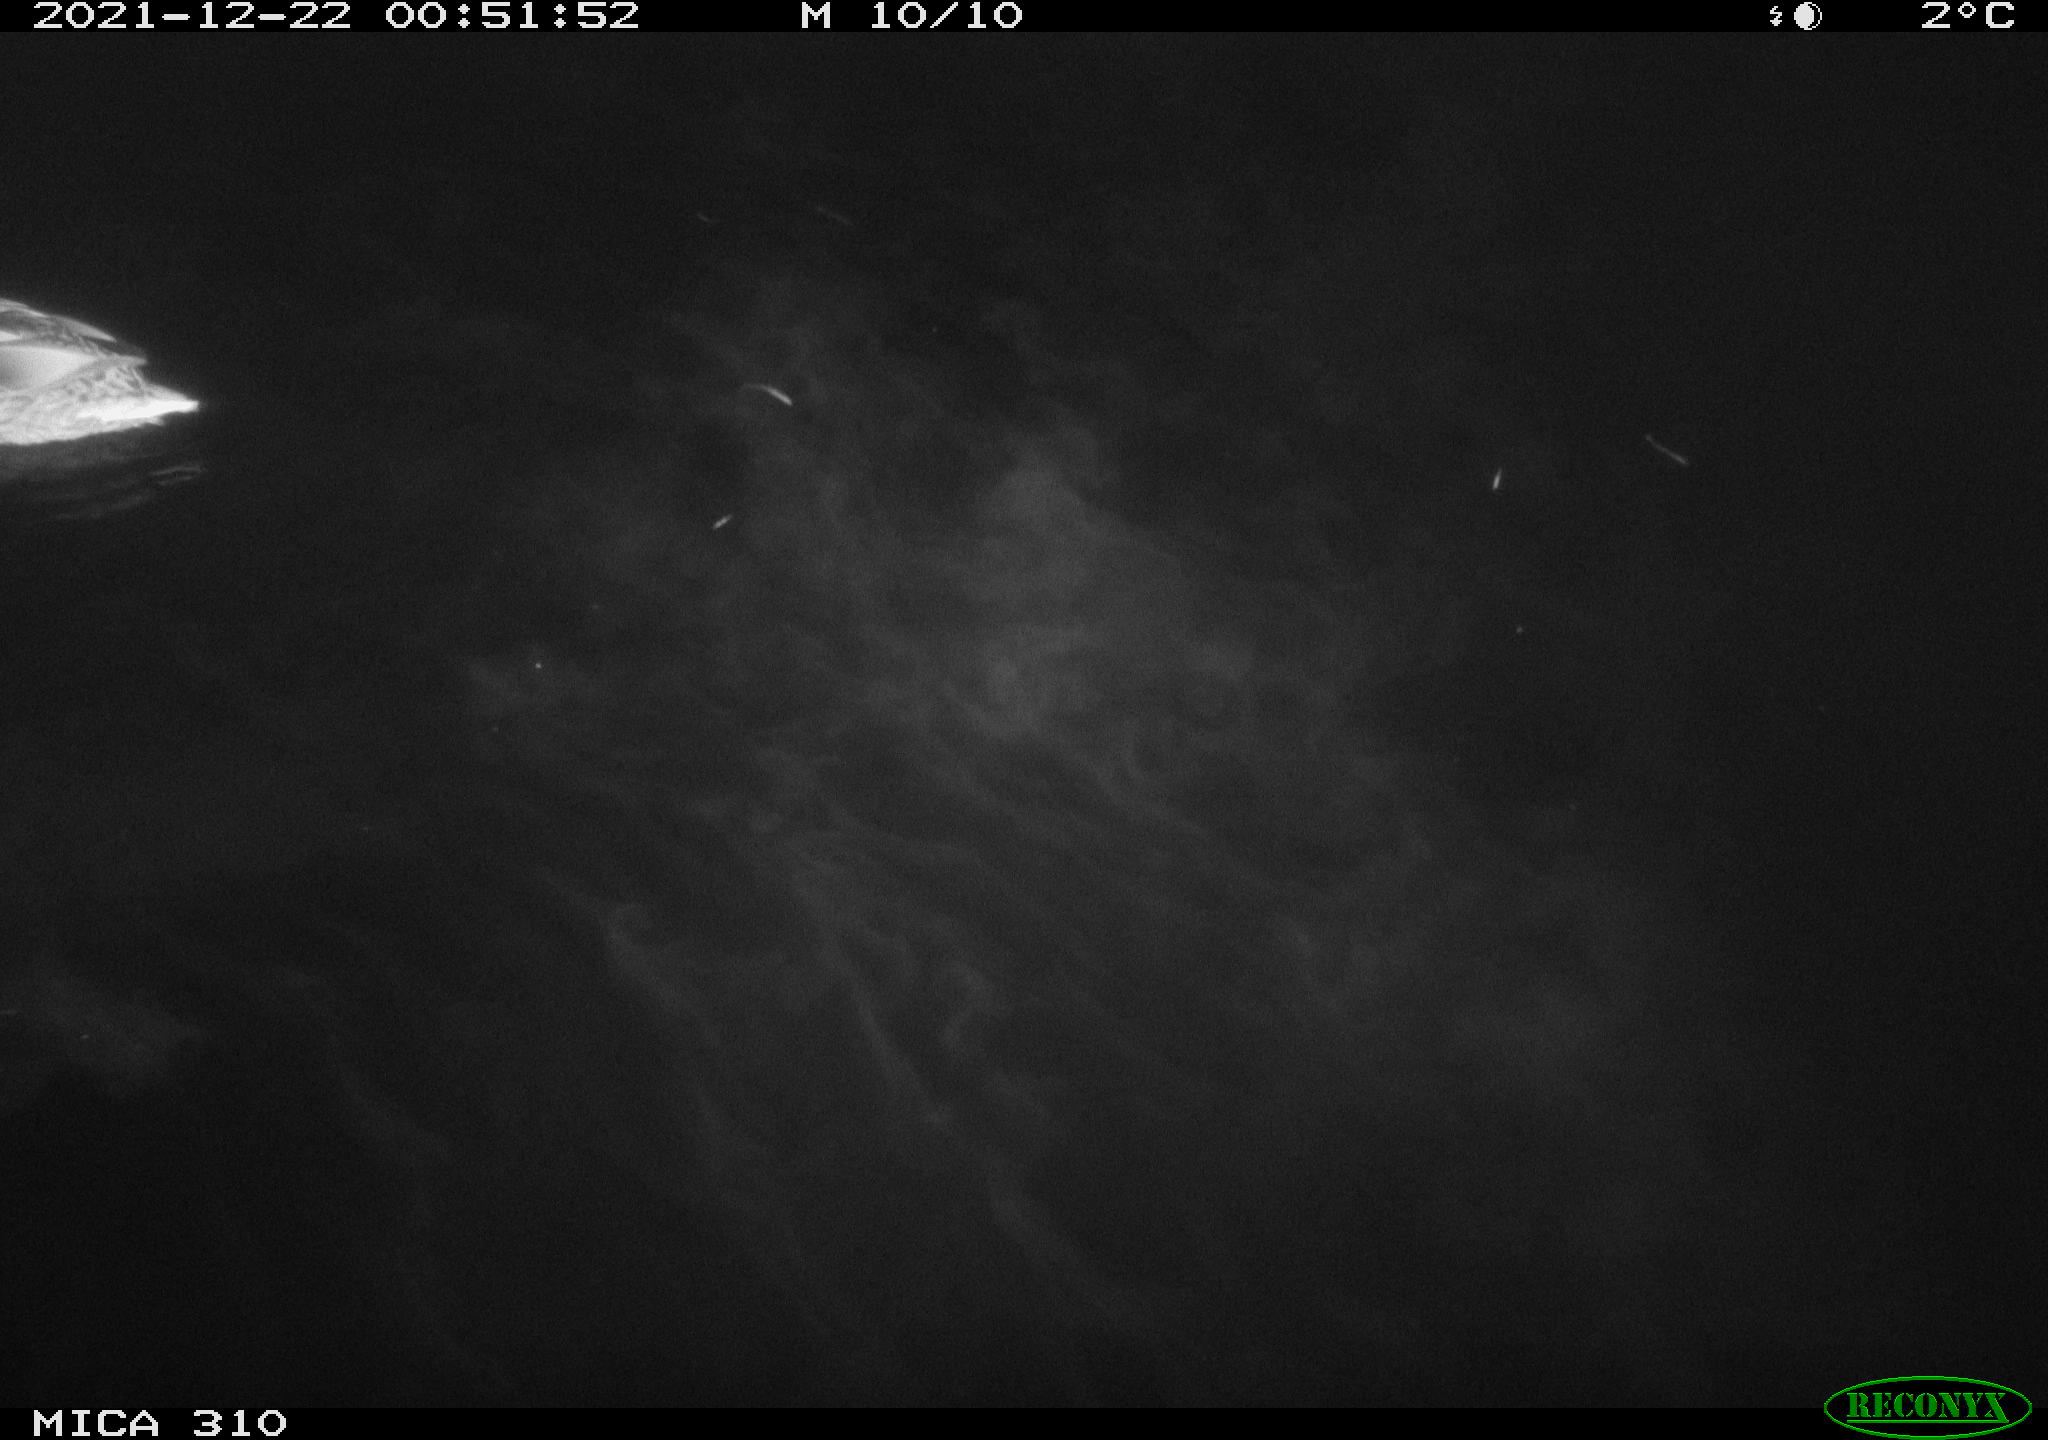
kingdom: Animalia
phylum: Chordata
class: Aves
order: Anseriformes
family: Anatidae
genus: Anas
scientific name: Anas platyrhynchos
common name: Mallard
